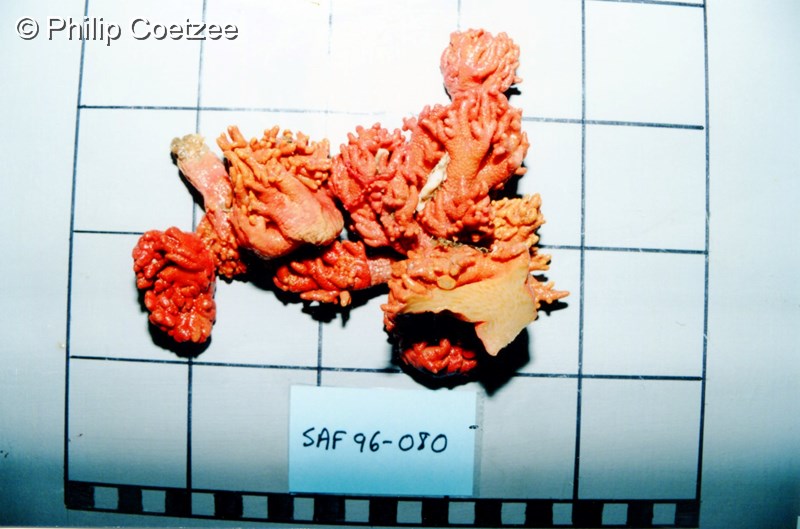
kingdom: Animalia
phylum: Cnidaria
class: Anthozoa
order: Scleralcyonacea
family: Parasphaerascleridae
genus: Parasphaerasclera
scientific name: Parasphaerasclera valdiviae
